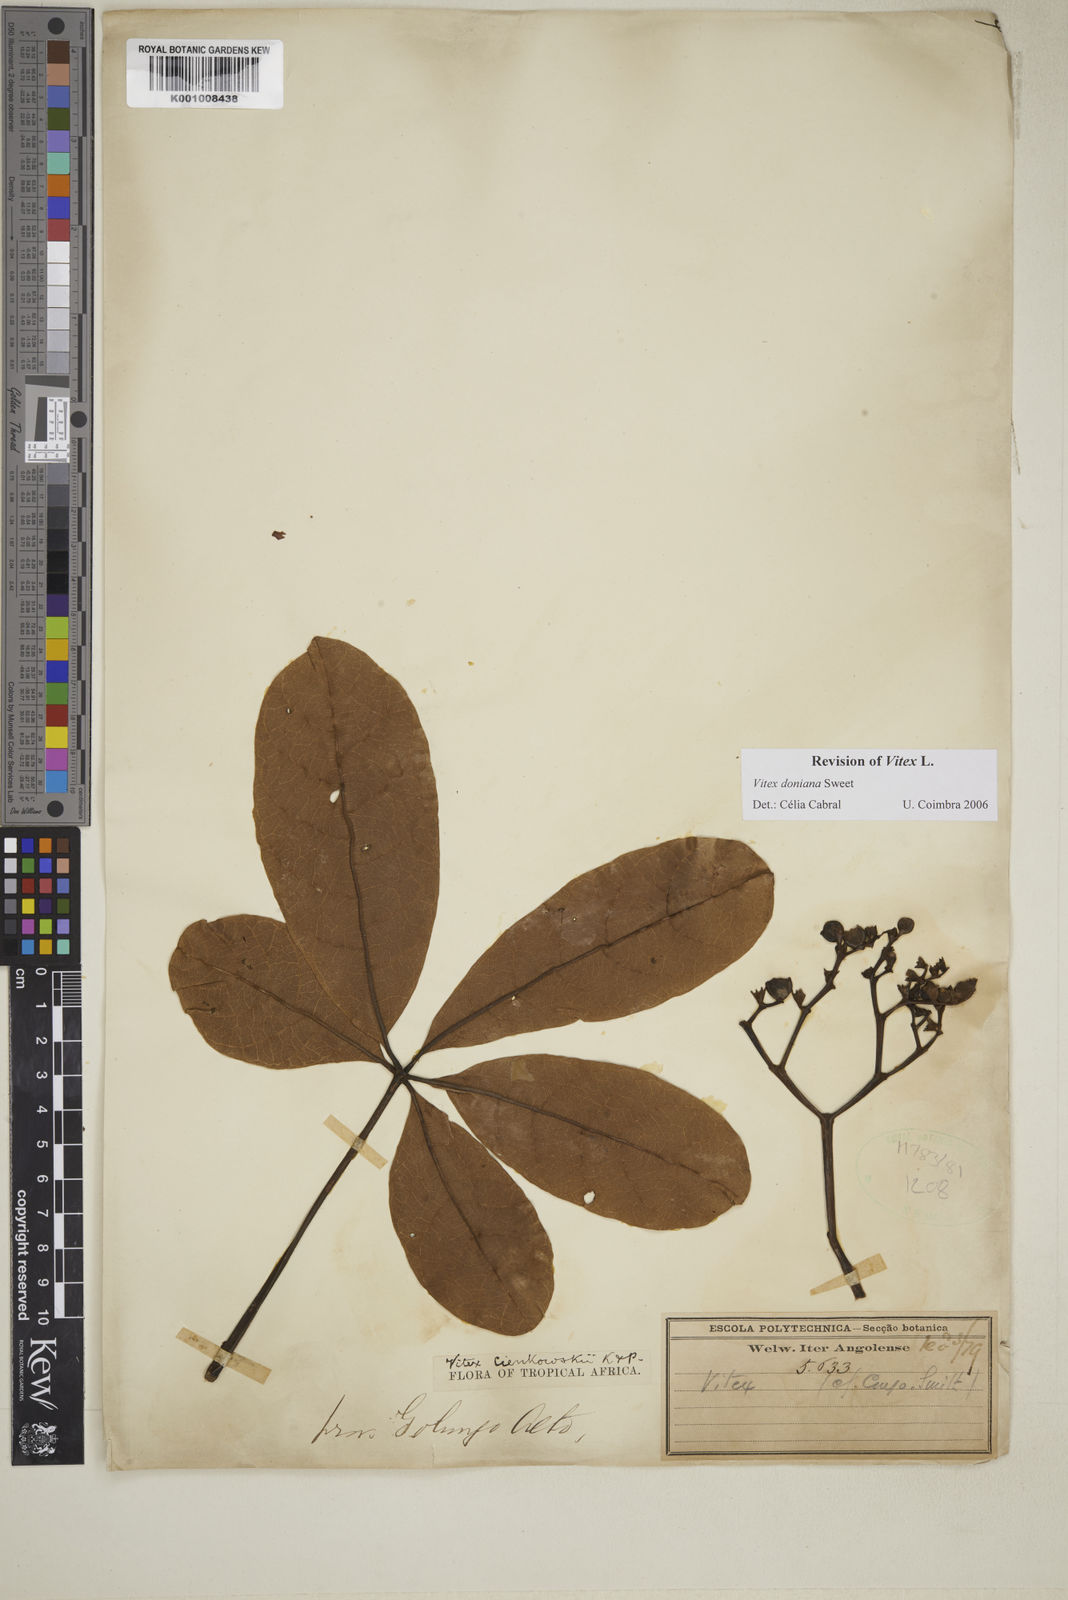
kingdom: Plantae
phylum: Tracheophyta
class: Magnoliopsida
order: Lamiales
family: Lamiaceae
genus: Vitex
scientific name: Vitex doniana
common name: Black plum
